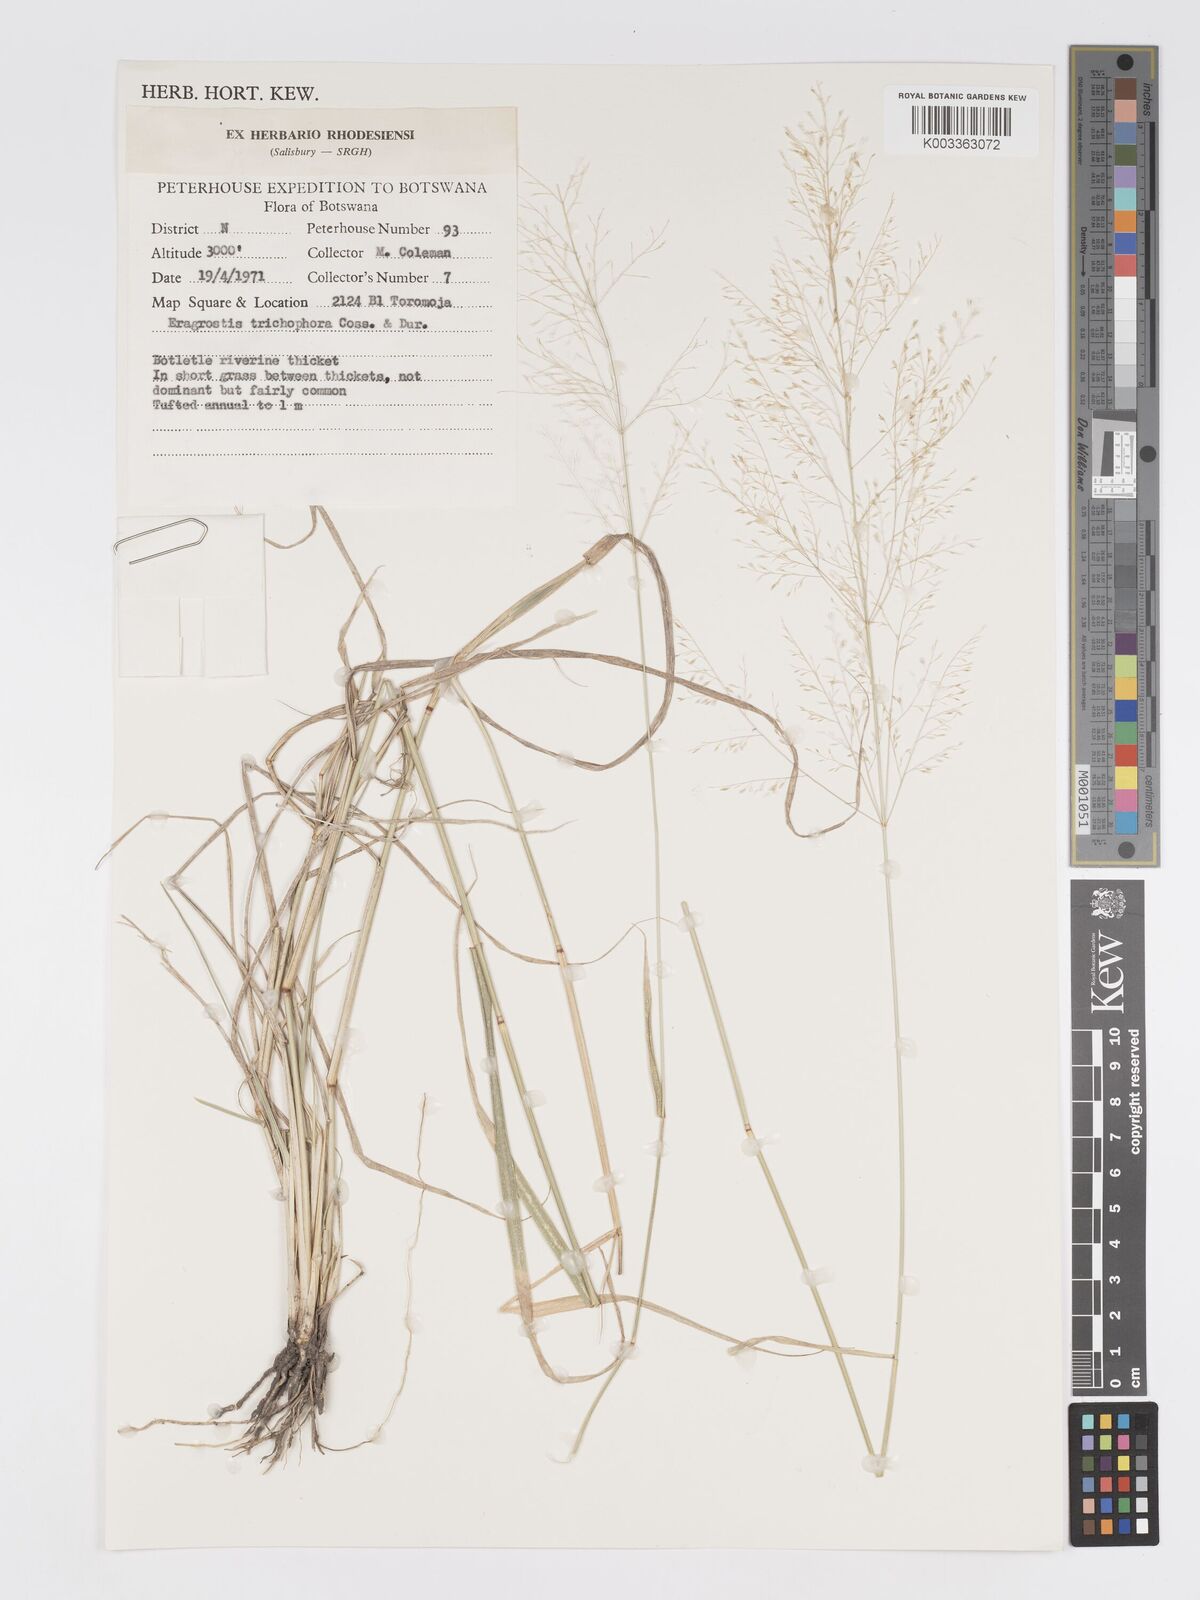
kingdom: Plantae
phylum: Tracheophyta
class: Liliopsida
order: Poales
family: Poaceae
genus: Eragrostis
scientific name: Eragrostis cylindriflora
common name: Cylinderflower lovegrass
